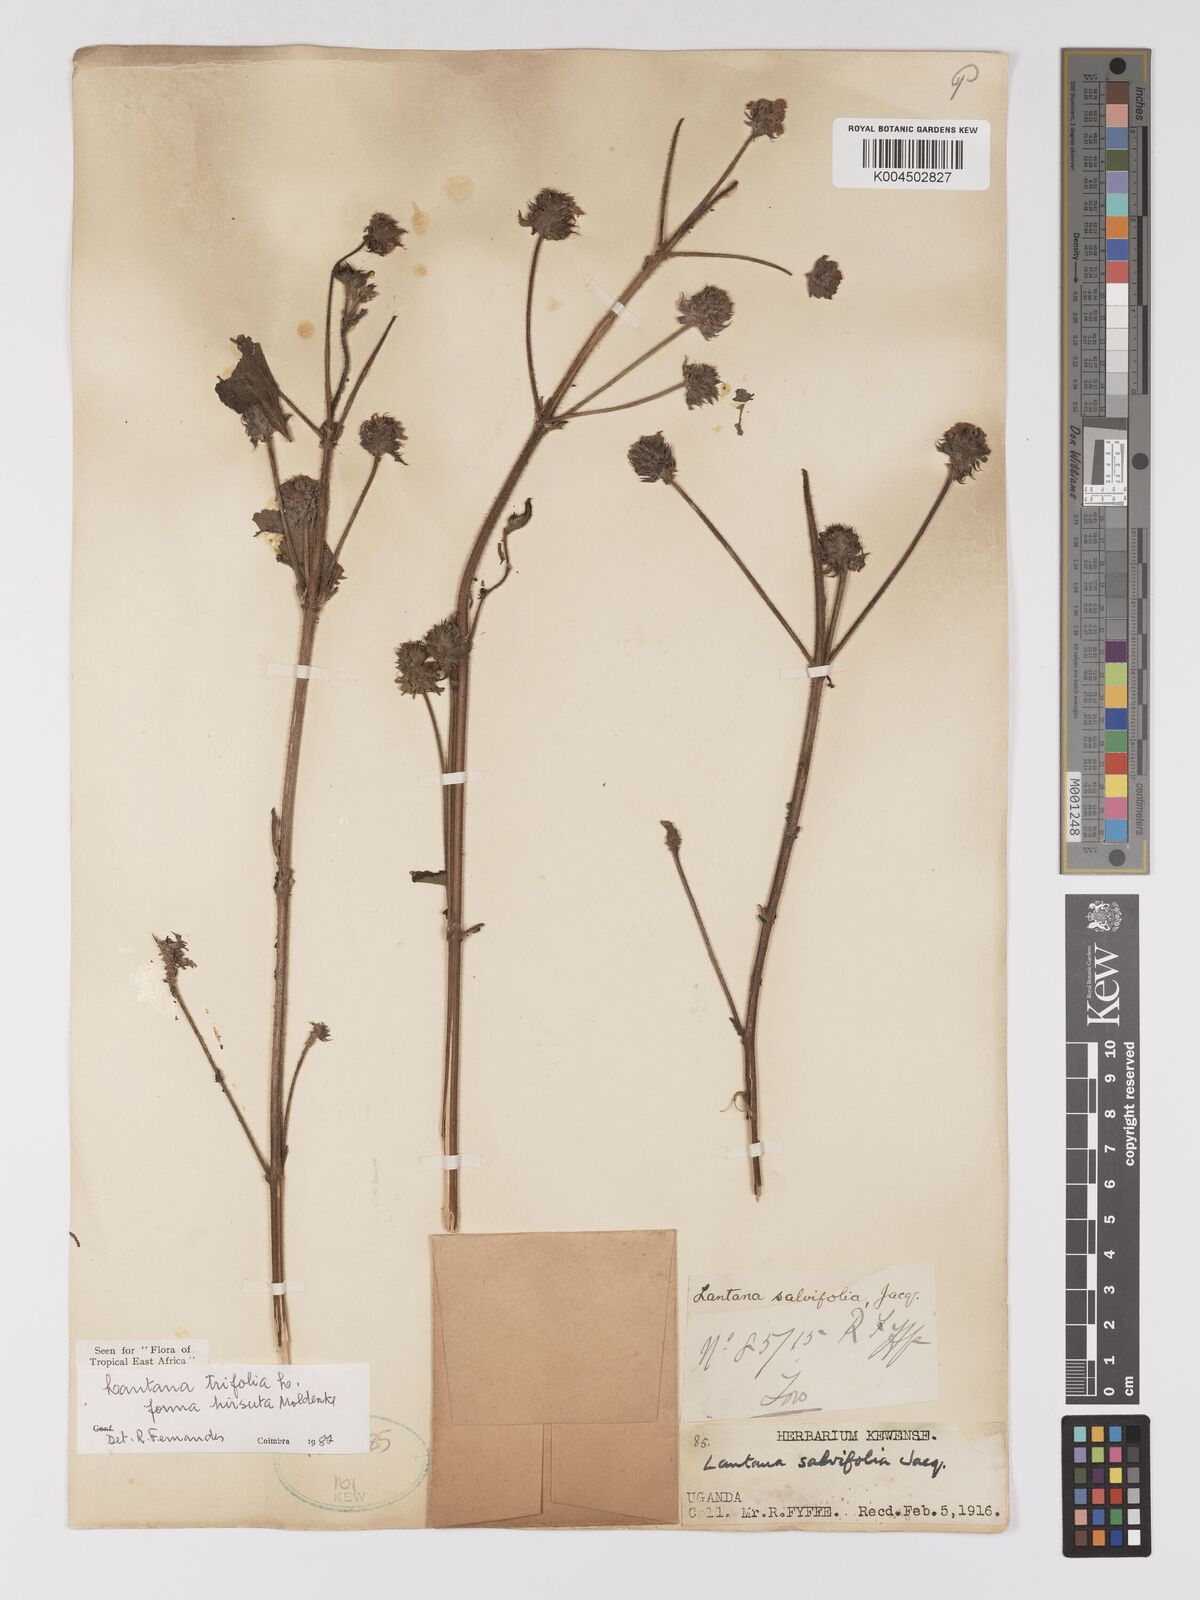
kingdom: Plantae
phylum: Tracheophyta
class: Magnoliopsida
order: Lamiales
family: Verbenaceae
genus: Lantana
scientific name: Lantana trifolia
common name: Sweet-sage
